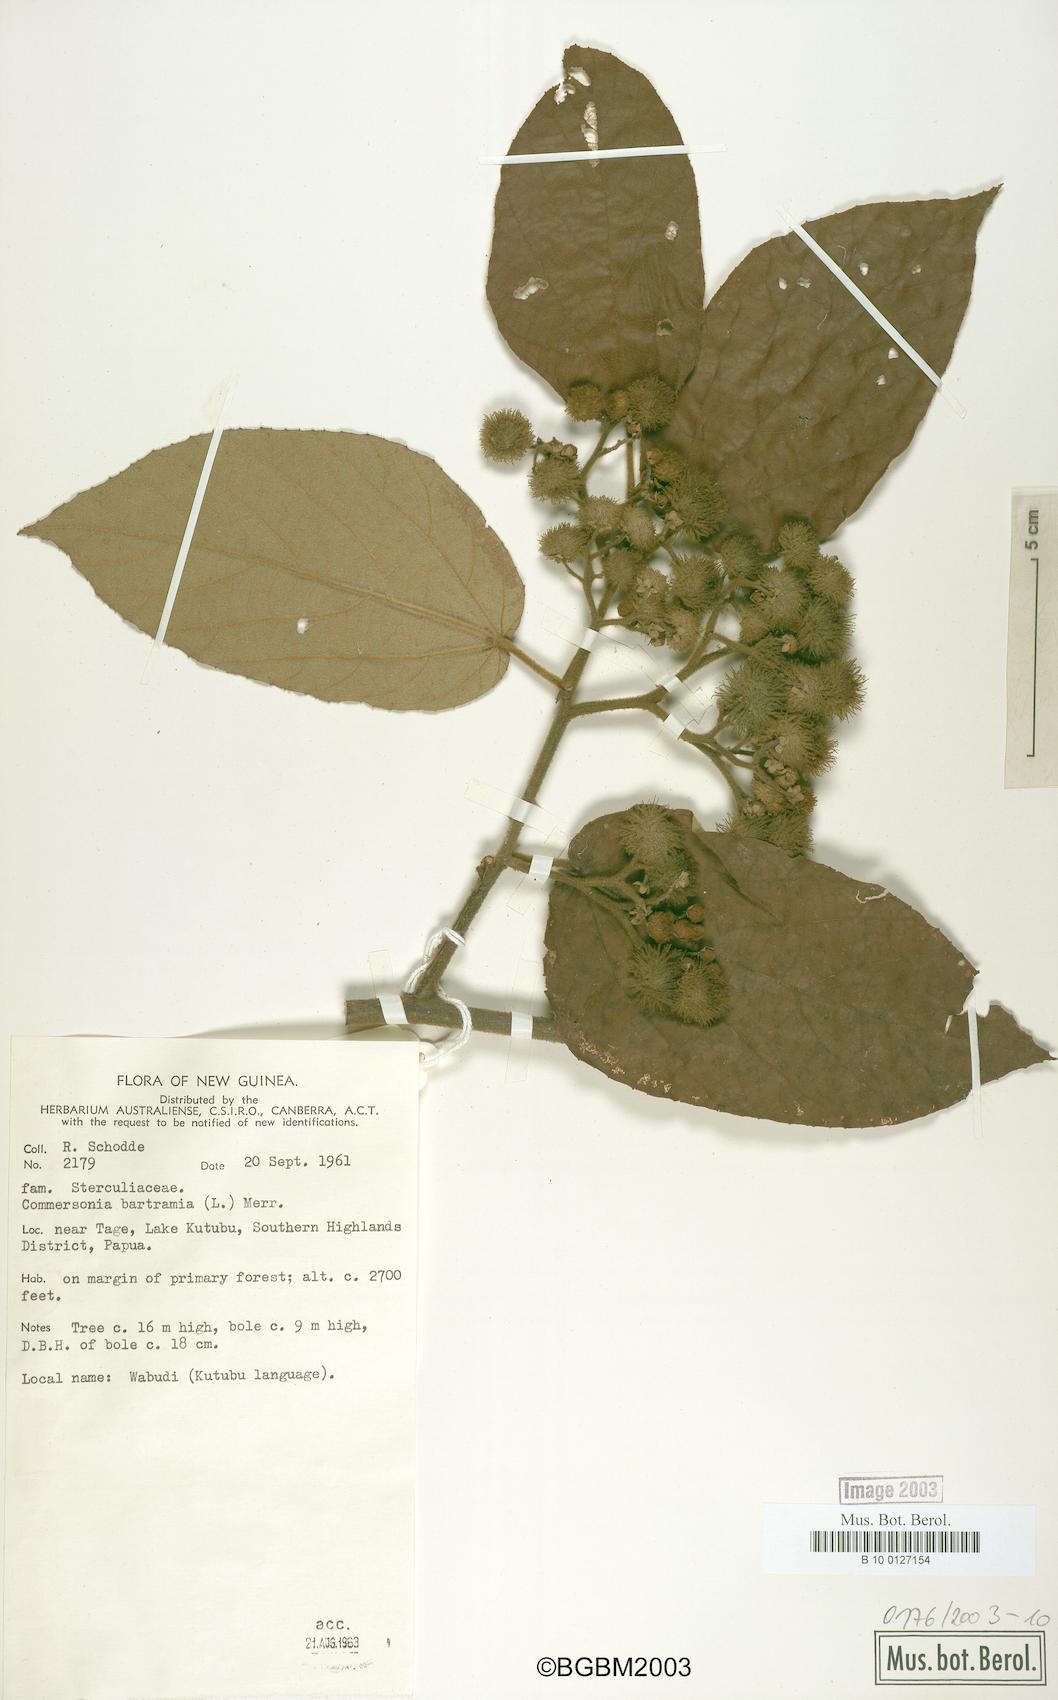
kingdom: Plantae
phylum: Tracheophyta
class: Magnoliopsida
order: Malvales
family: Malvaceae
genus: Commersonia
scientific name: Commersonia bartramia
